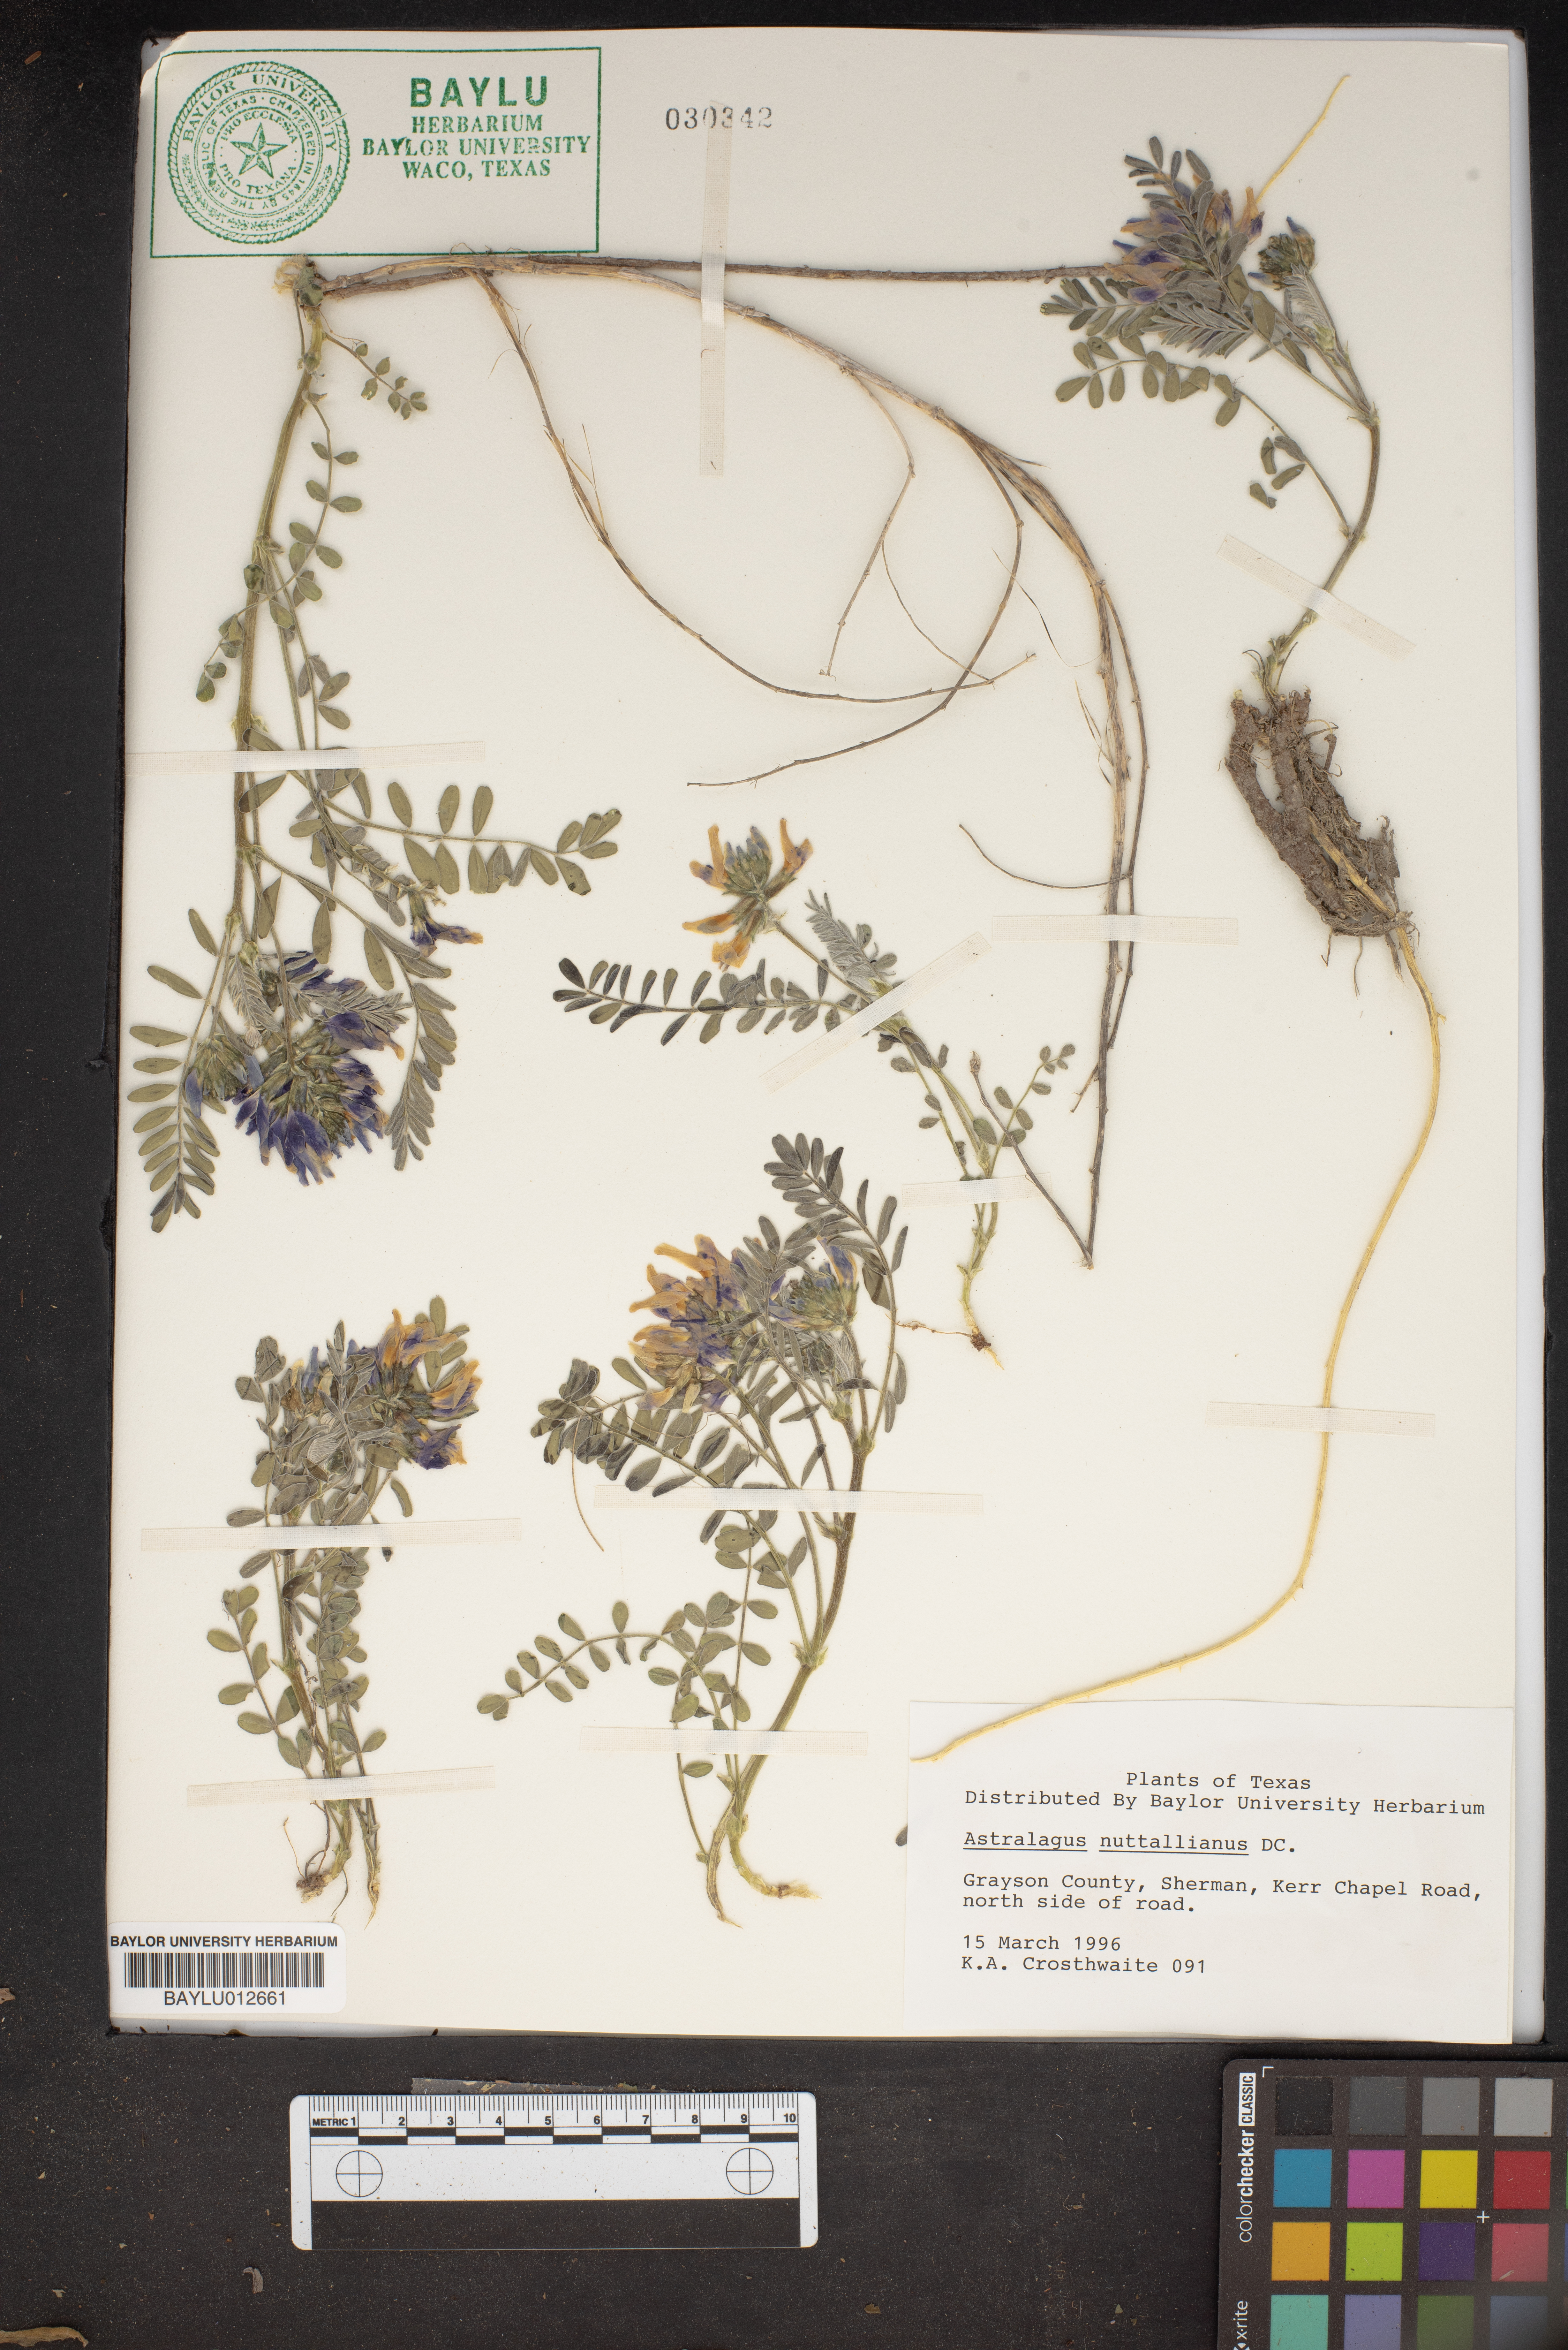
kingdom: Plantae
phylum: Tracheophyta
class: Magnoliopsida
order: Fabales
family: Fabaceae
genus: Astragalus
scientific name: Astragalus nuttallianus
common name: Smallflowered milkvetch
